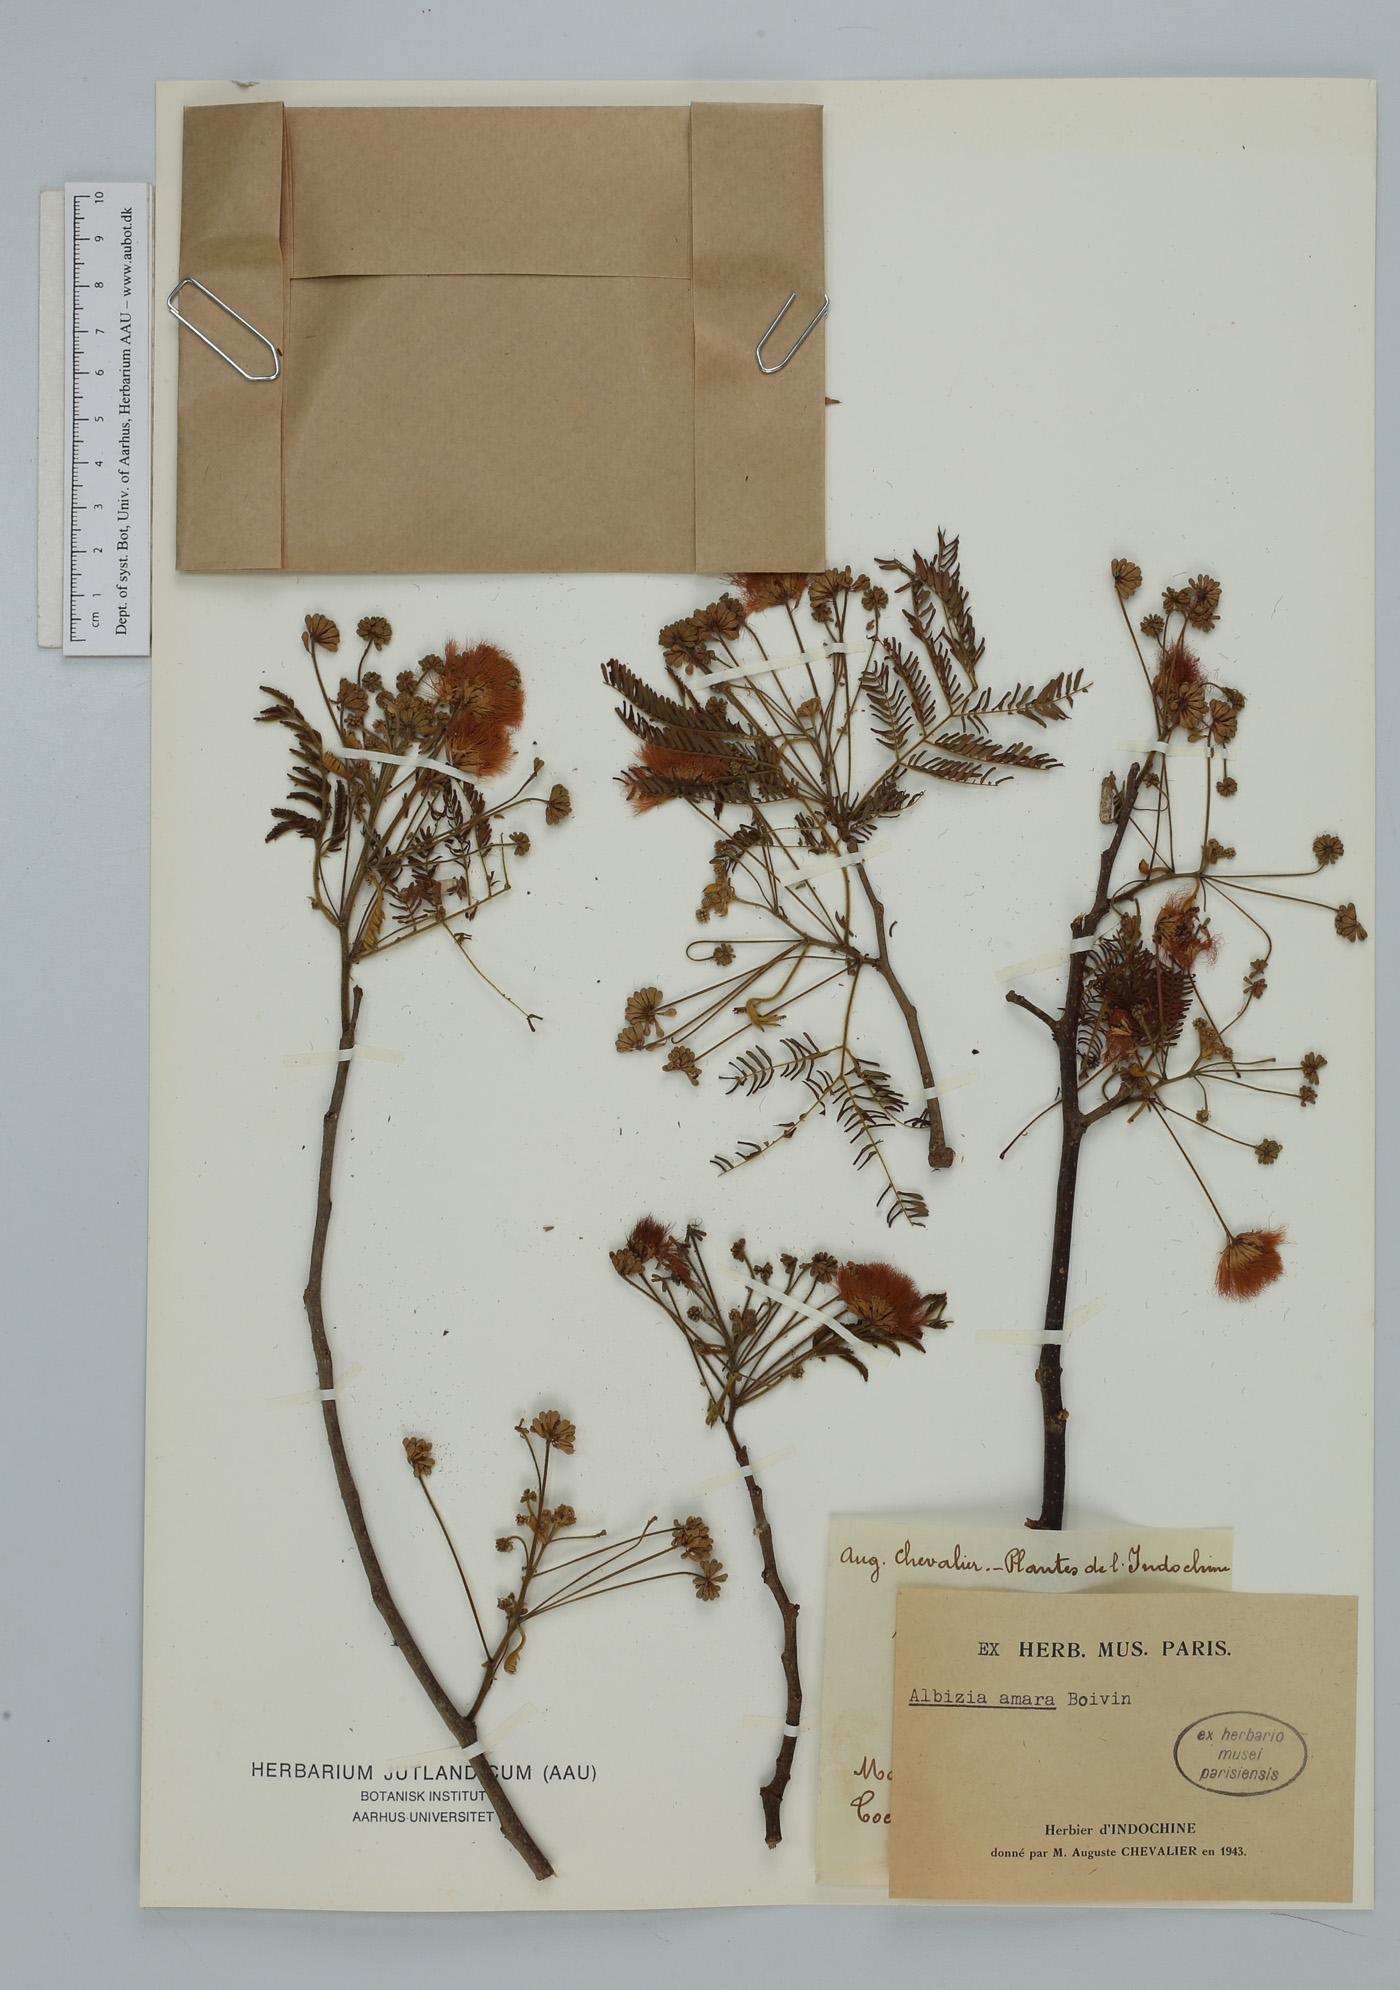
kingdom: Plantae
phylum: Tracheophyta
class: Magnoliopsida
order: Fabales
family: Fabaceae
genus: Albizia
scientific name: Albizia amara
